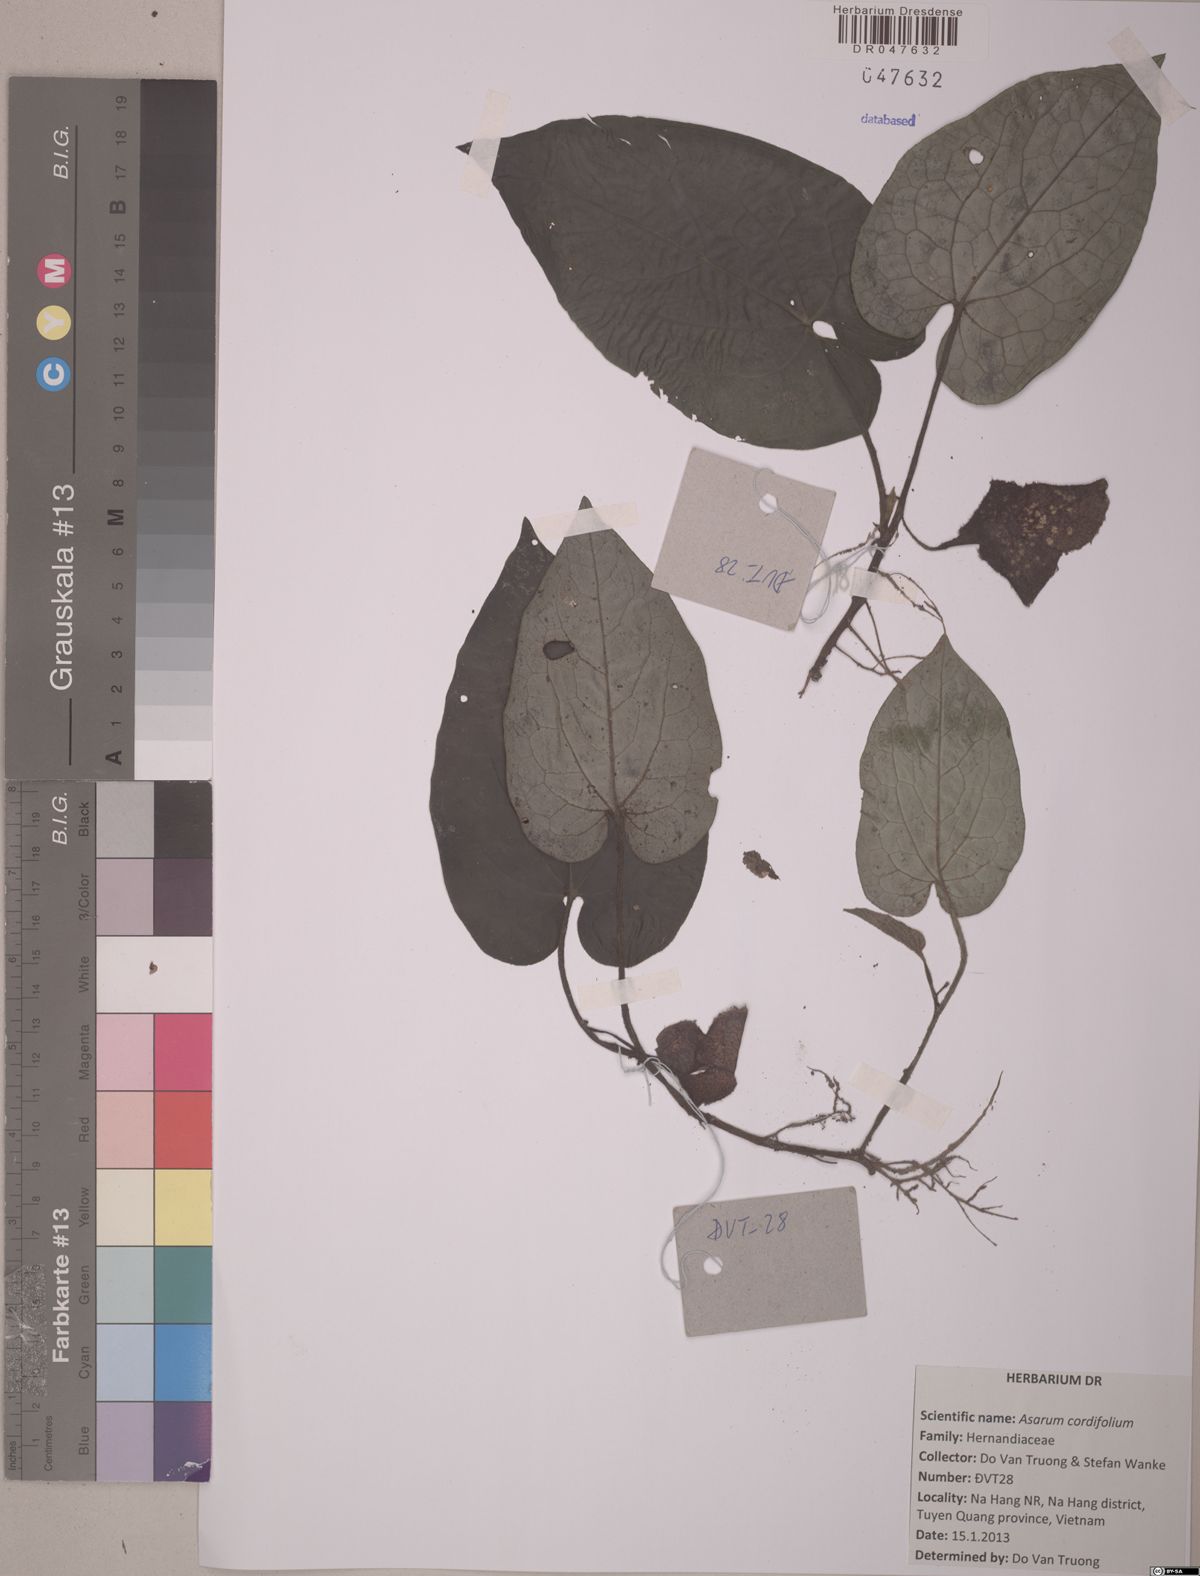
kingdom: Plantae
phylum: Tracheophyta
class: Magnoliopsida
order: Piperales
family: Aristolochiaceae
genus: Asarum
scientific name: Asarum cordifolium
